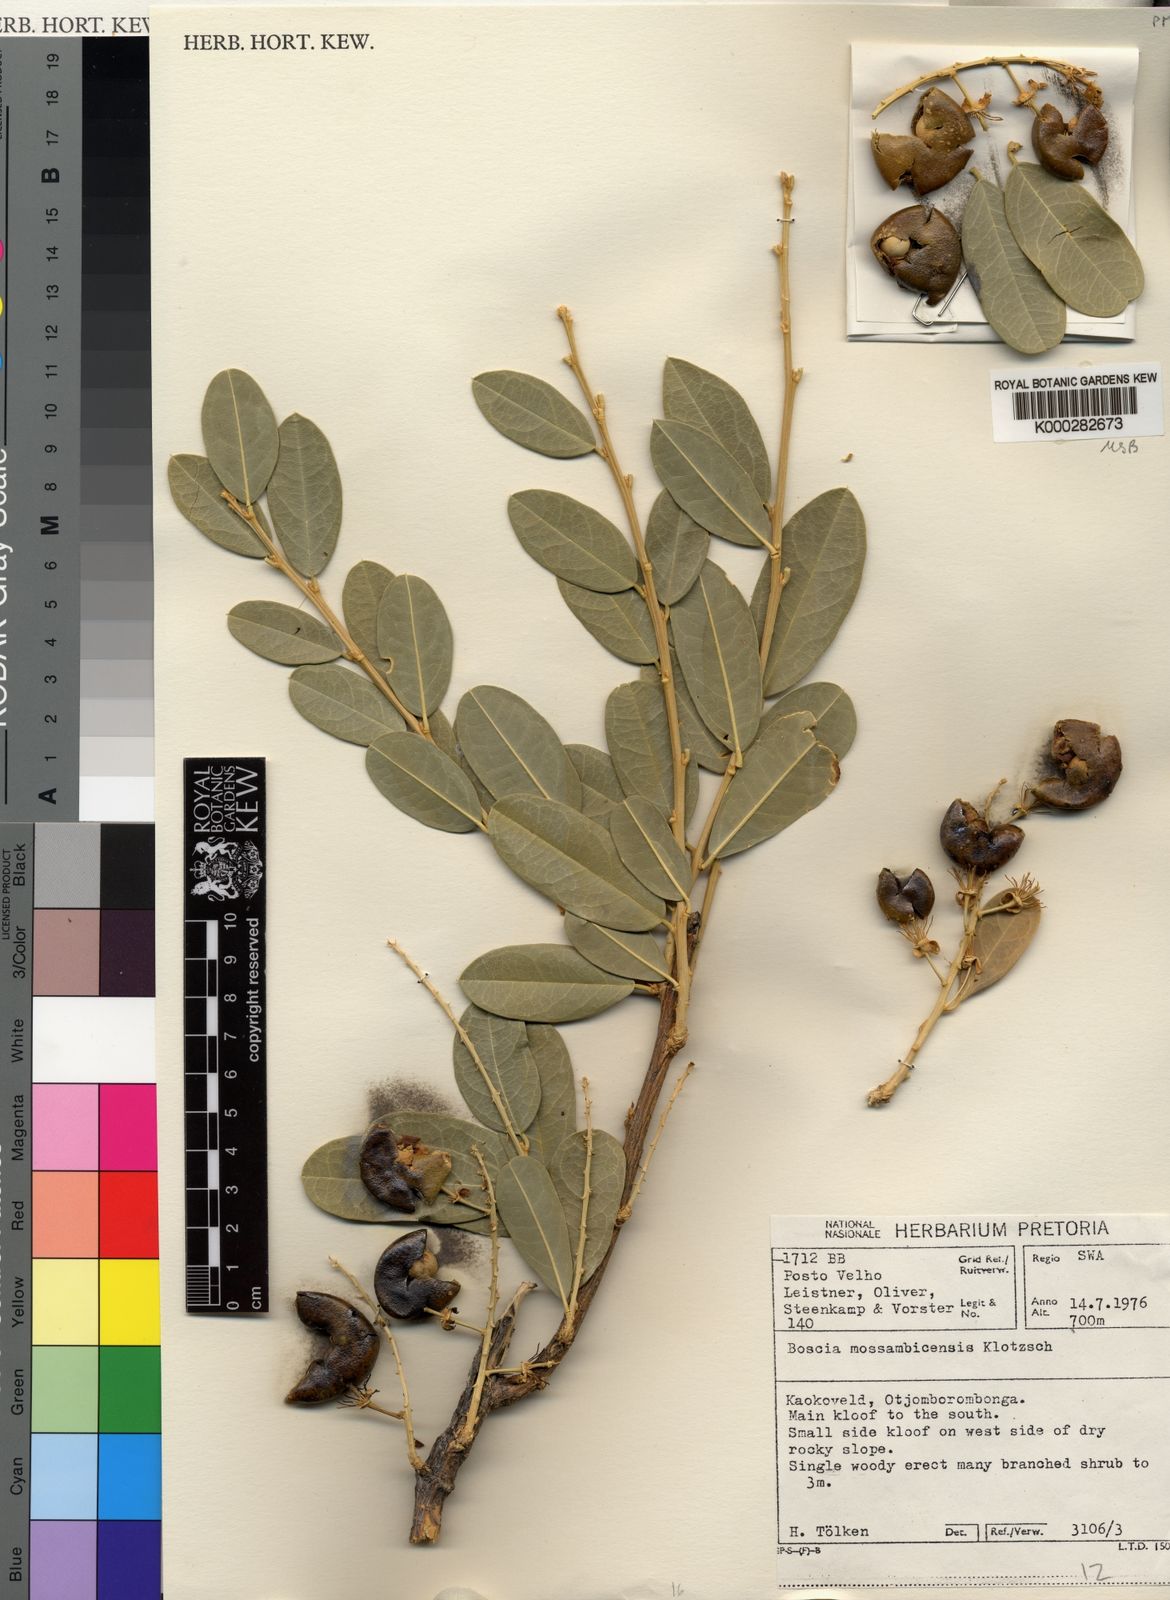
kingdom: Plantae
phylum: Tracheophyta
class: Magnoliopsida
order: Brassicales
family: Capparaceae
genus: Boscia
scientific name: Boscia mossambicensis
